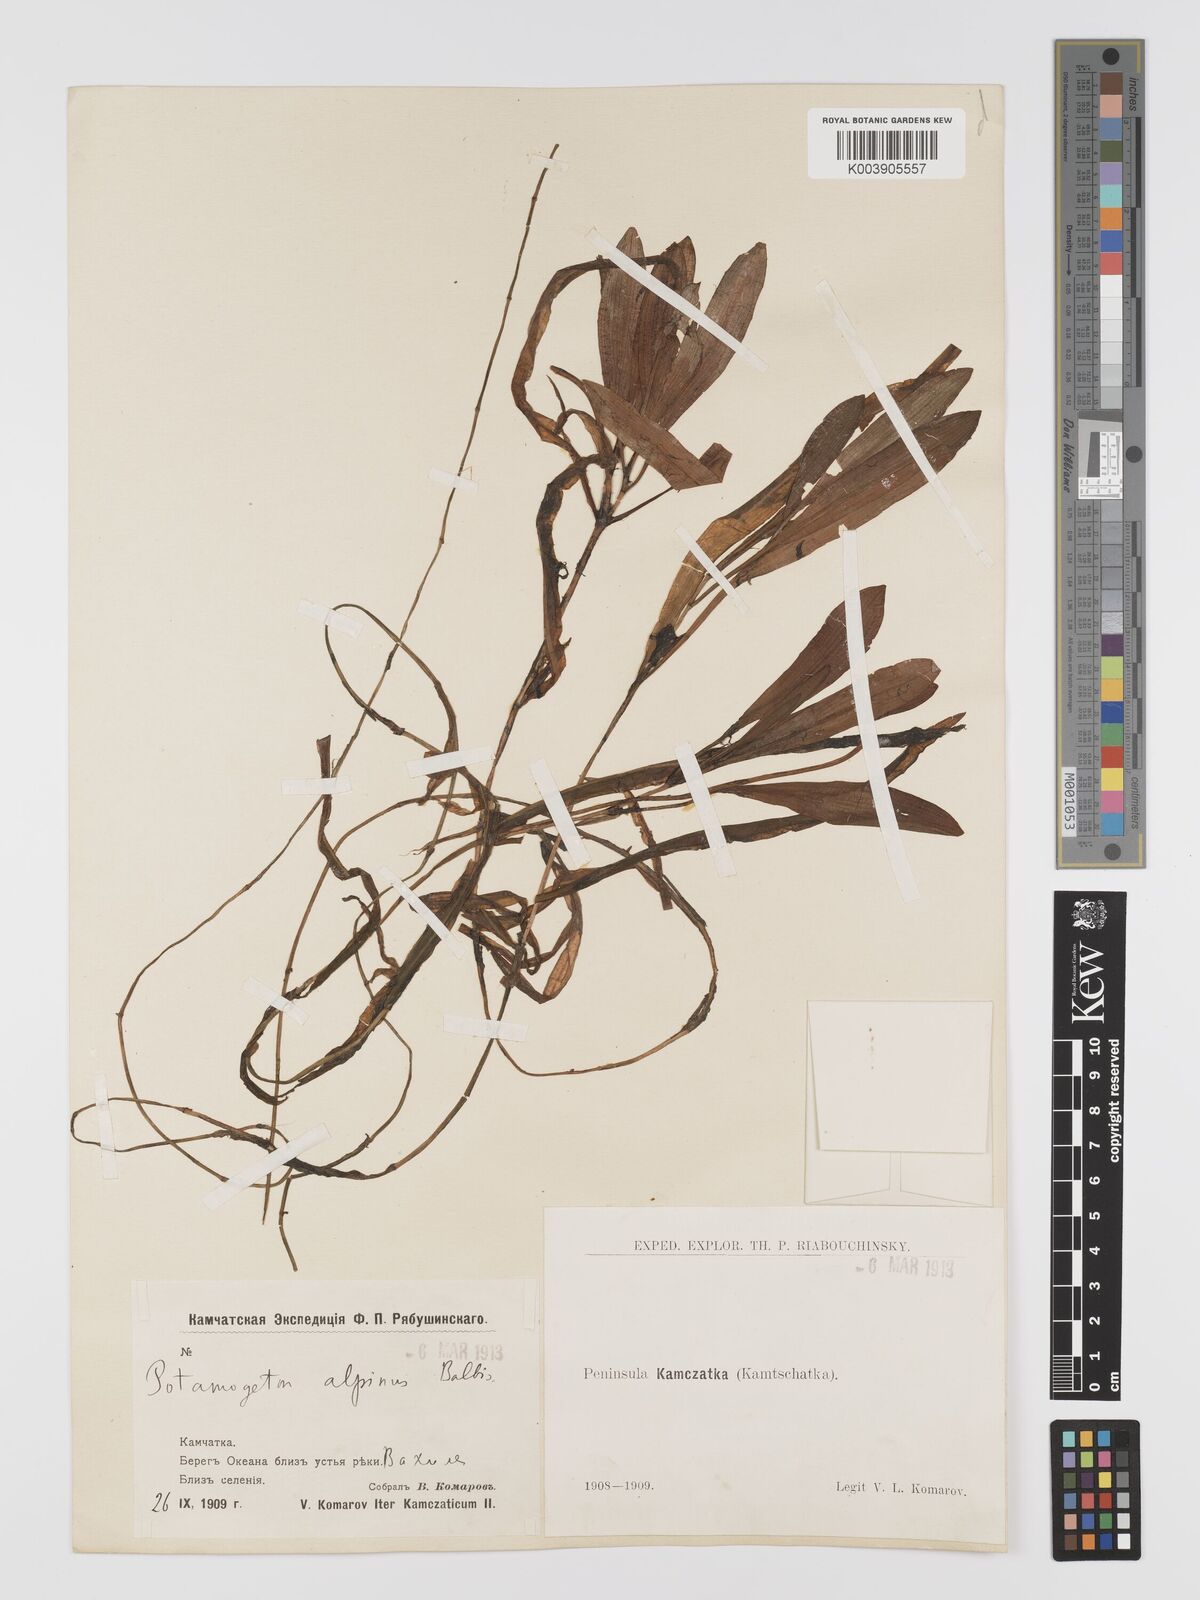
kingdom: Plantae
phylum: Tracheophyta
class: Liliopsida
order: Alismatales
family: Potamogetonaceae
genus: Potamogeton
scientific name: Potamogeton alpinus
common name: Red pondweed
